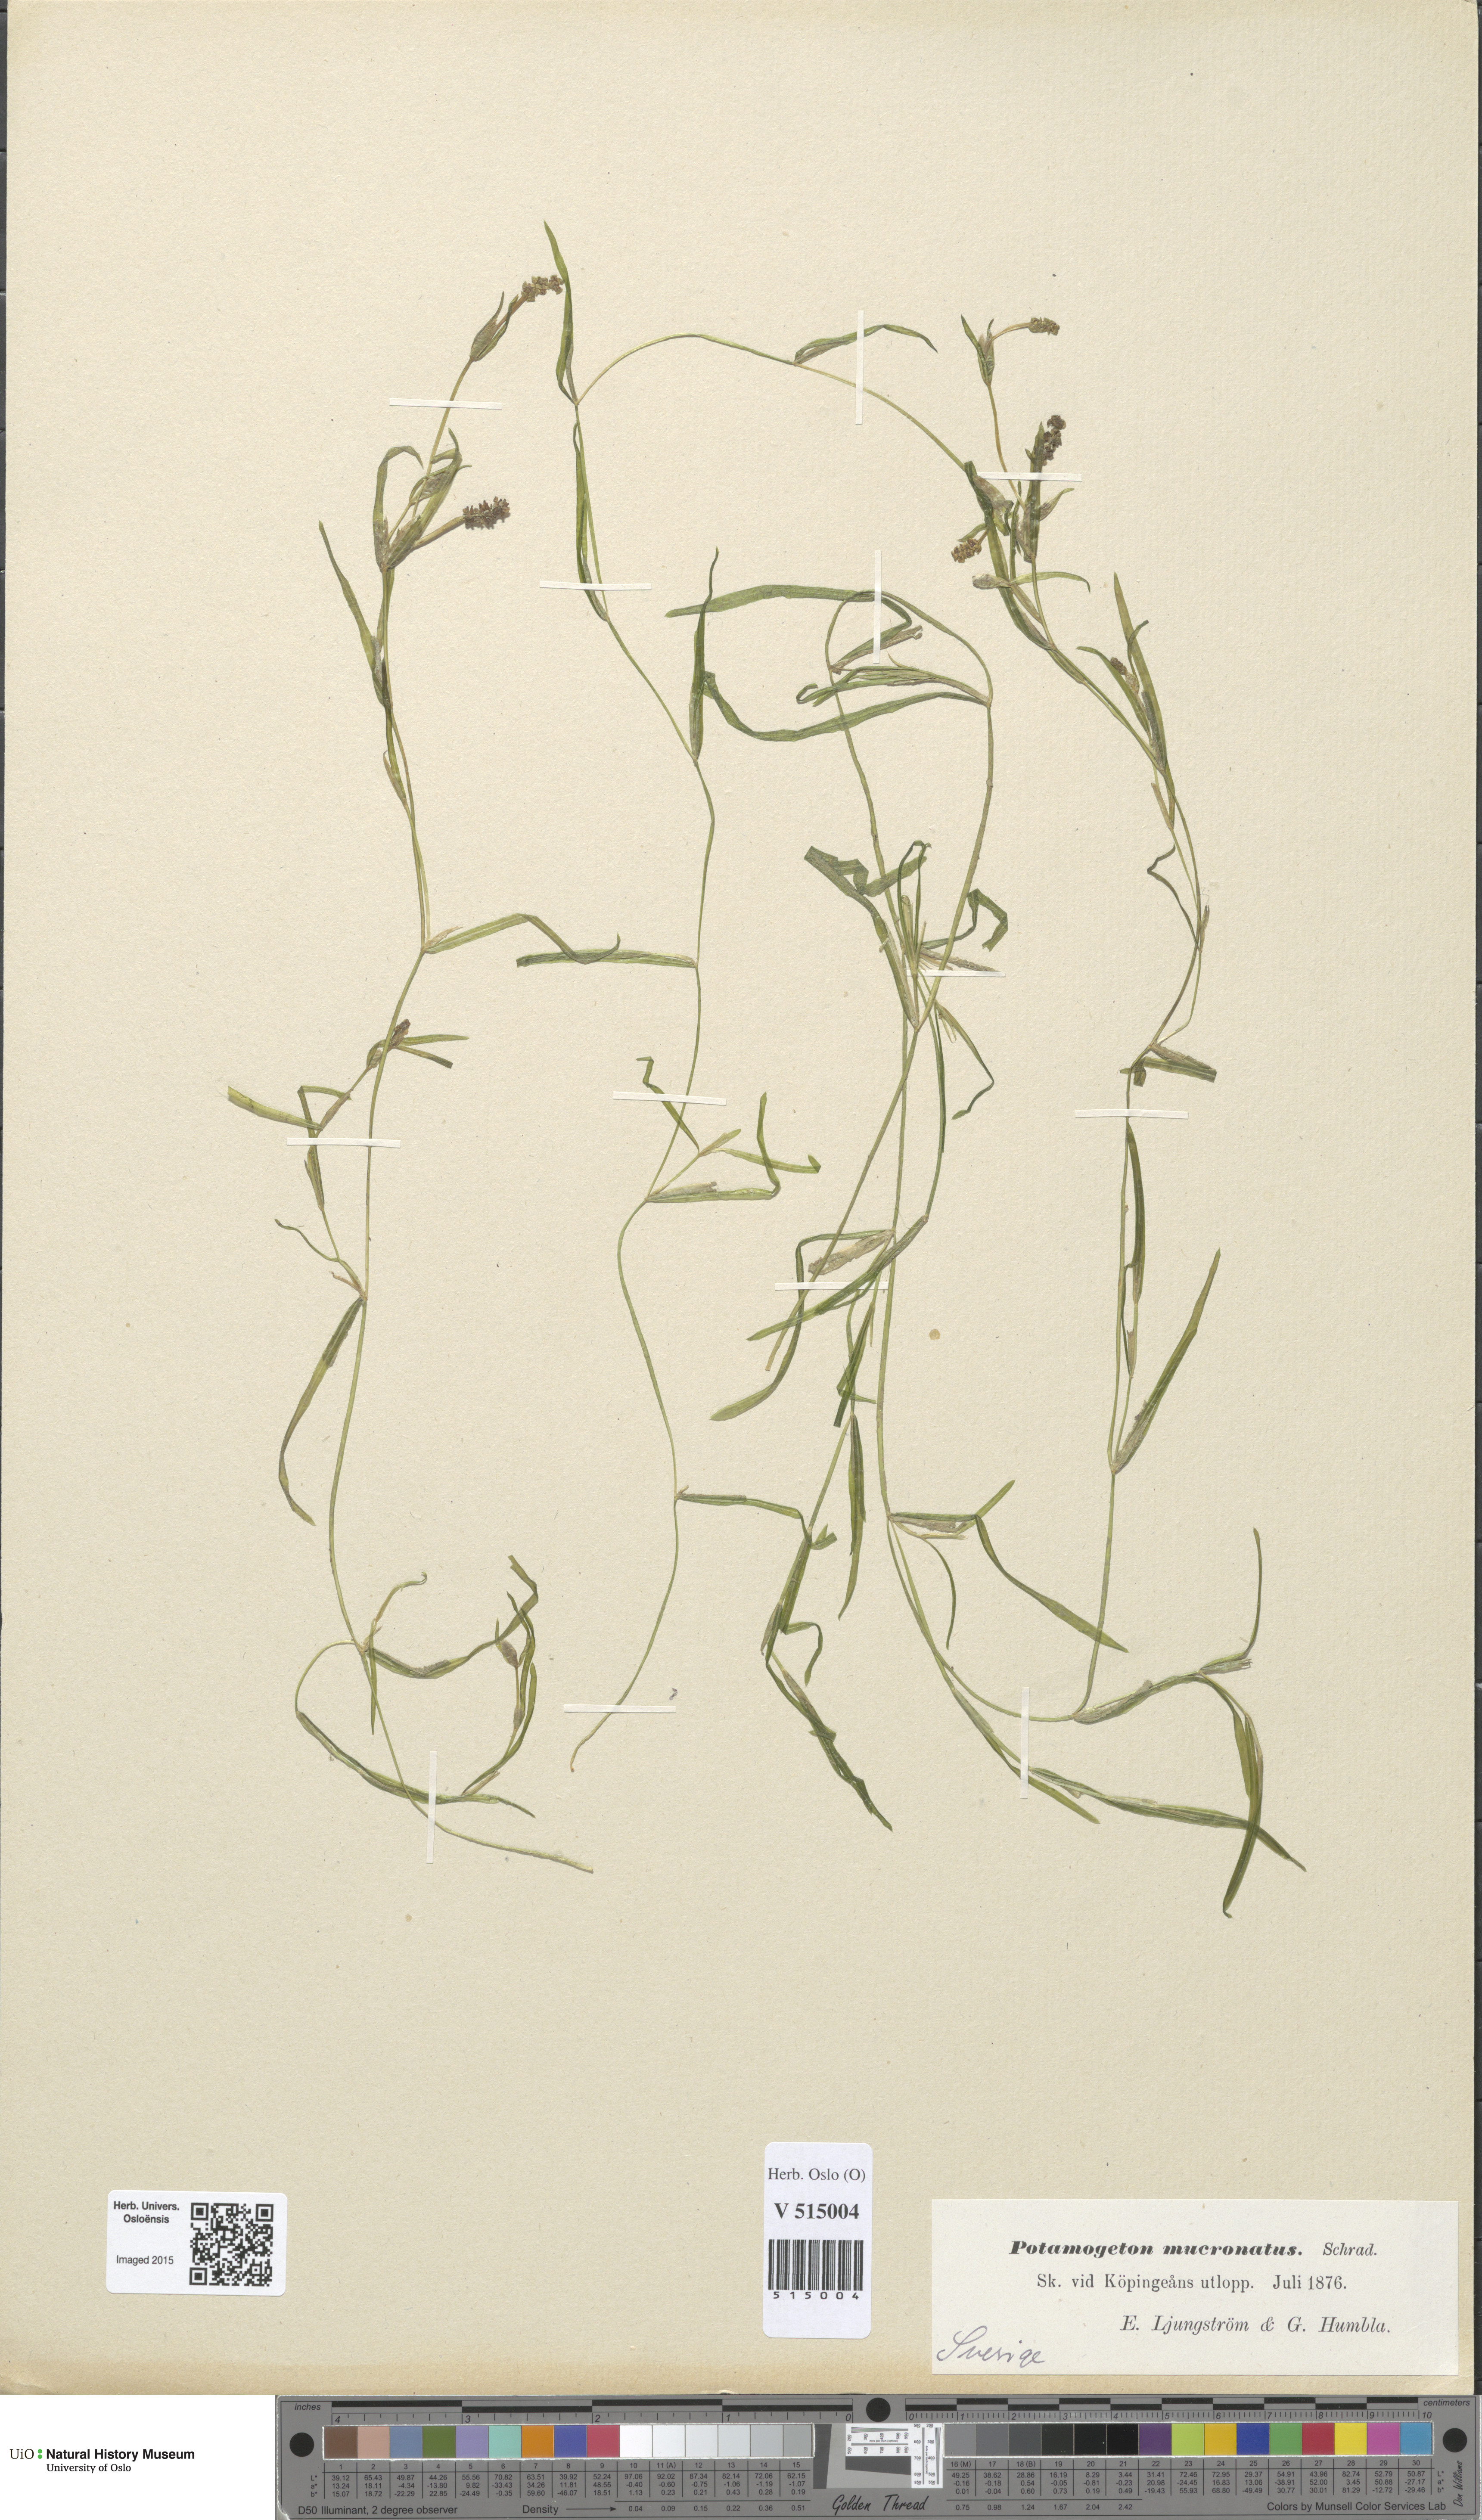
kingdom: Plantae
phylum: Tracheophyta
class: Liliopsida
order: Alismatales
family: Potamogetonaceae
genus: Potamogeton
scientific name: Potamogeton friesii
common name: Flat-stalked pondweed
